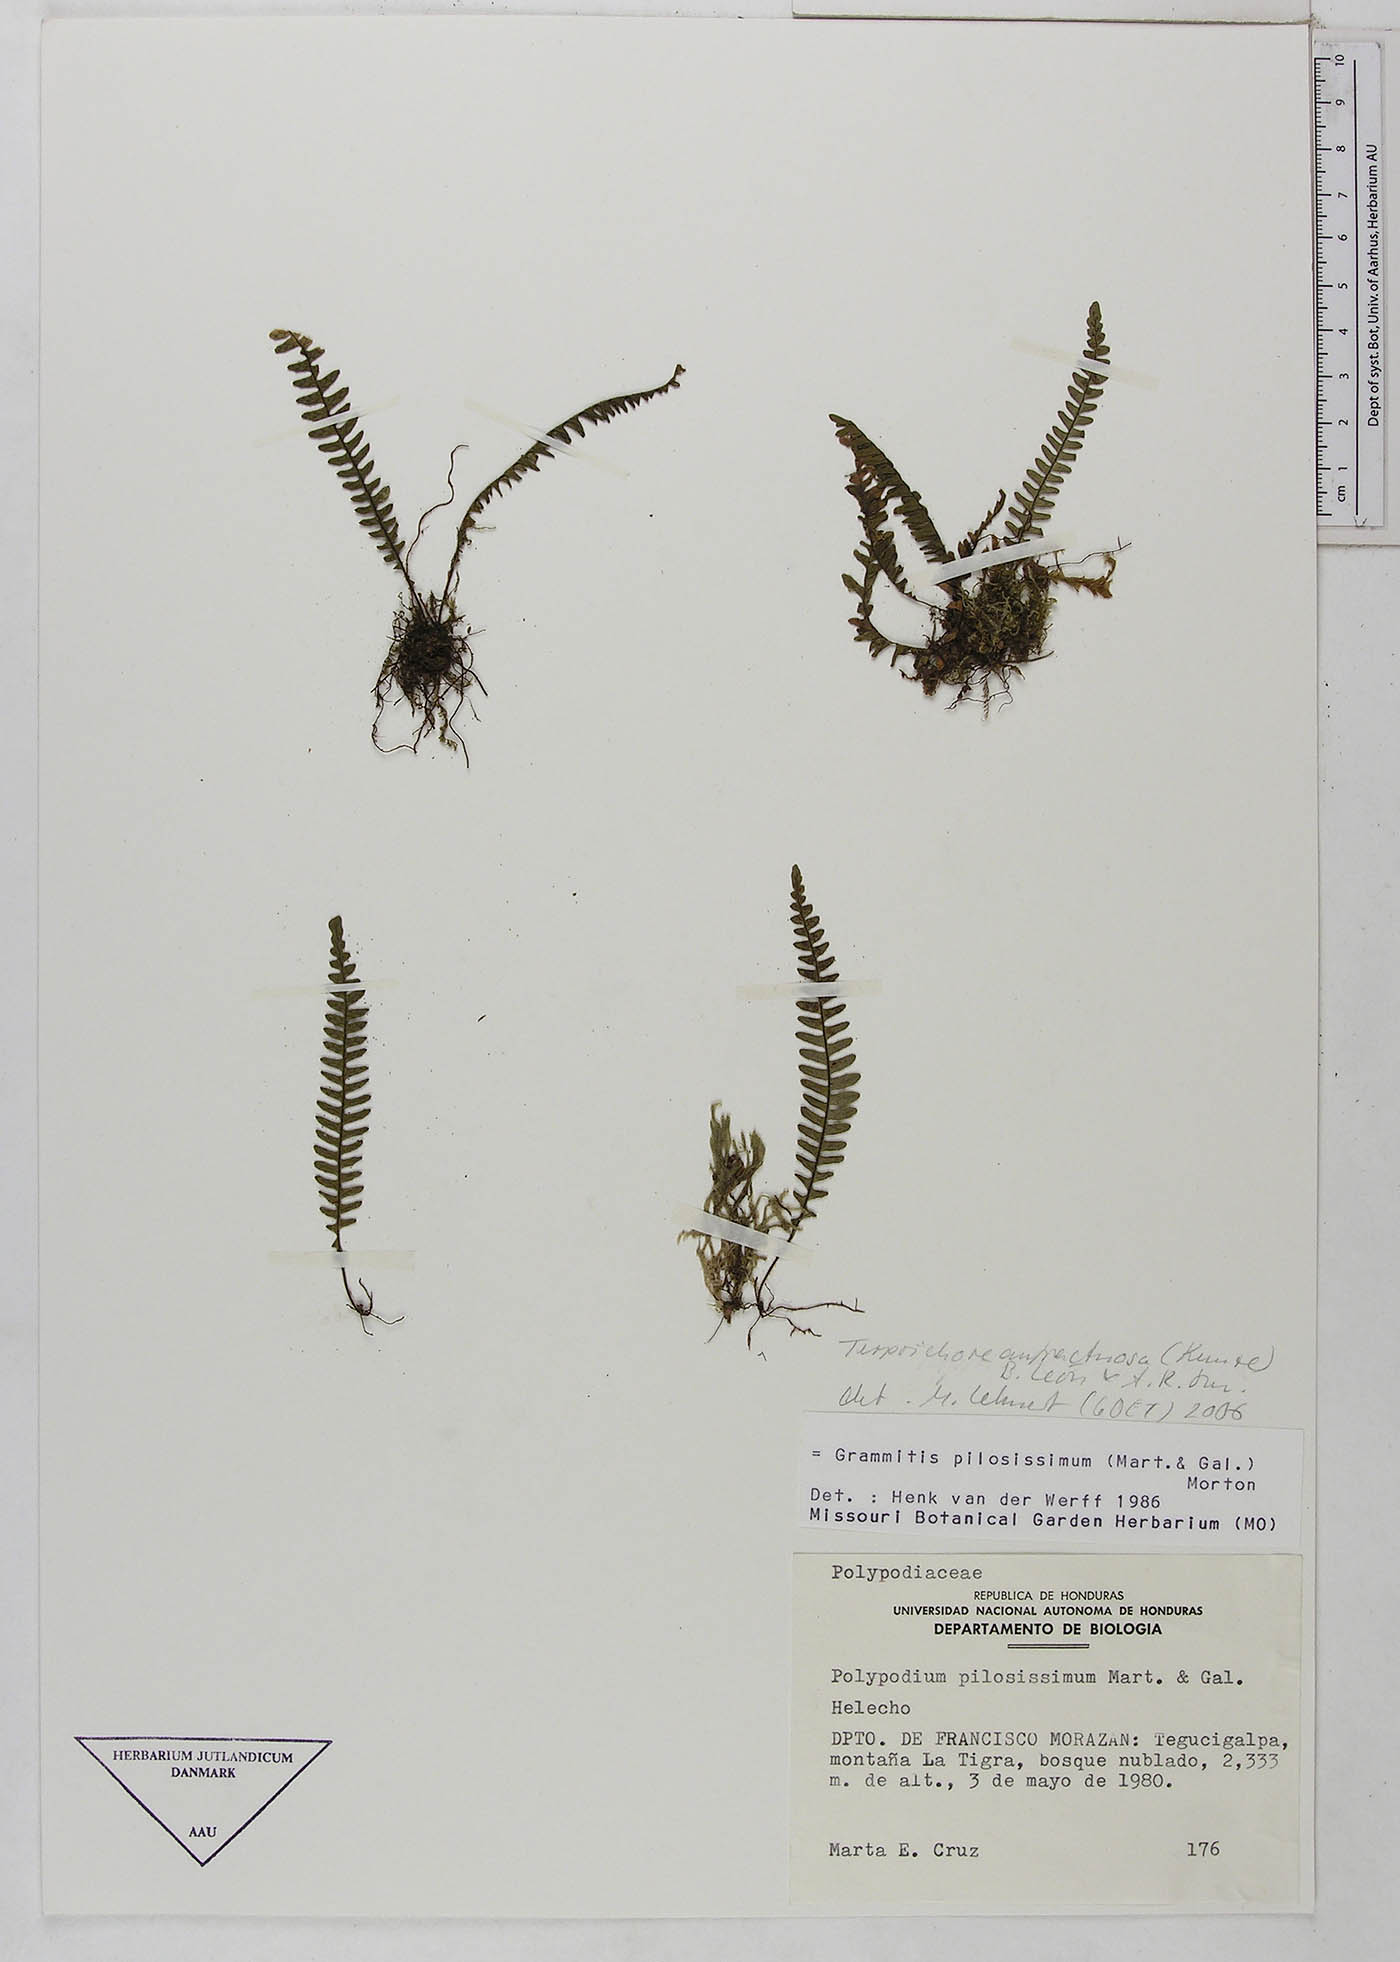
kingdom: Plantae
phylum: Tracheophyta
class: Polypodiopsida
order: Polypodiales
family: Polypodiaceae
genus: Ascogrammitis
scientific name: Ascogrammitis anfractuosa
